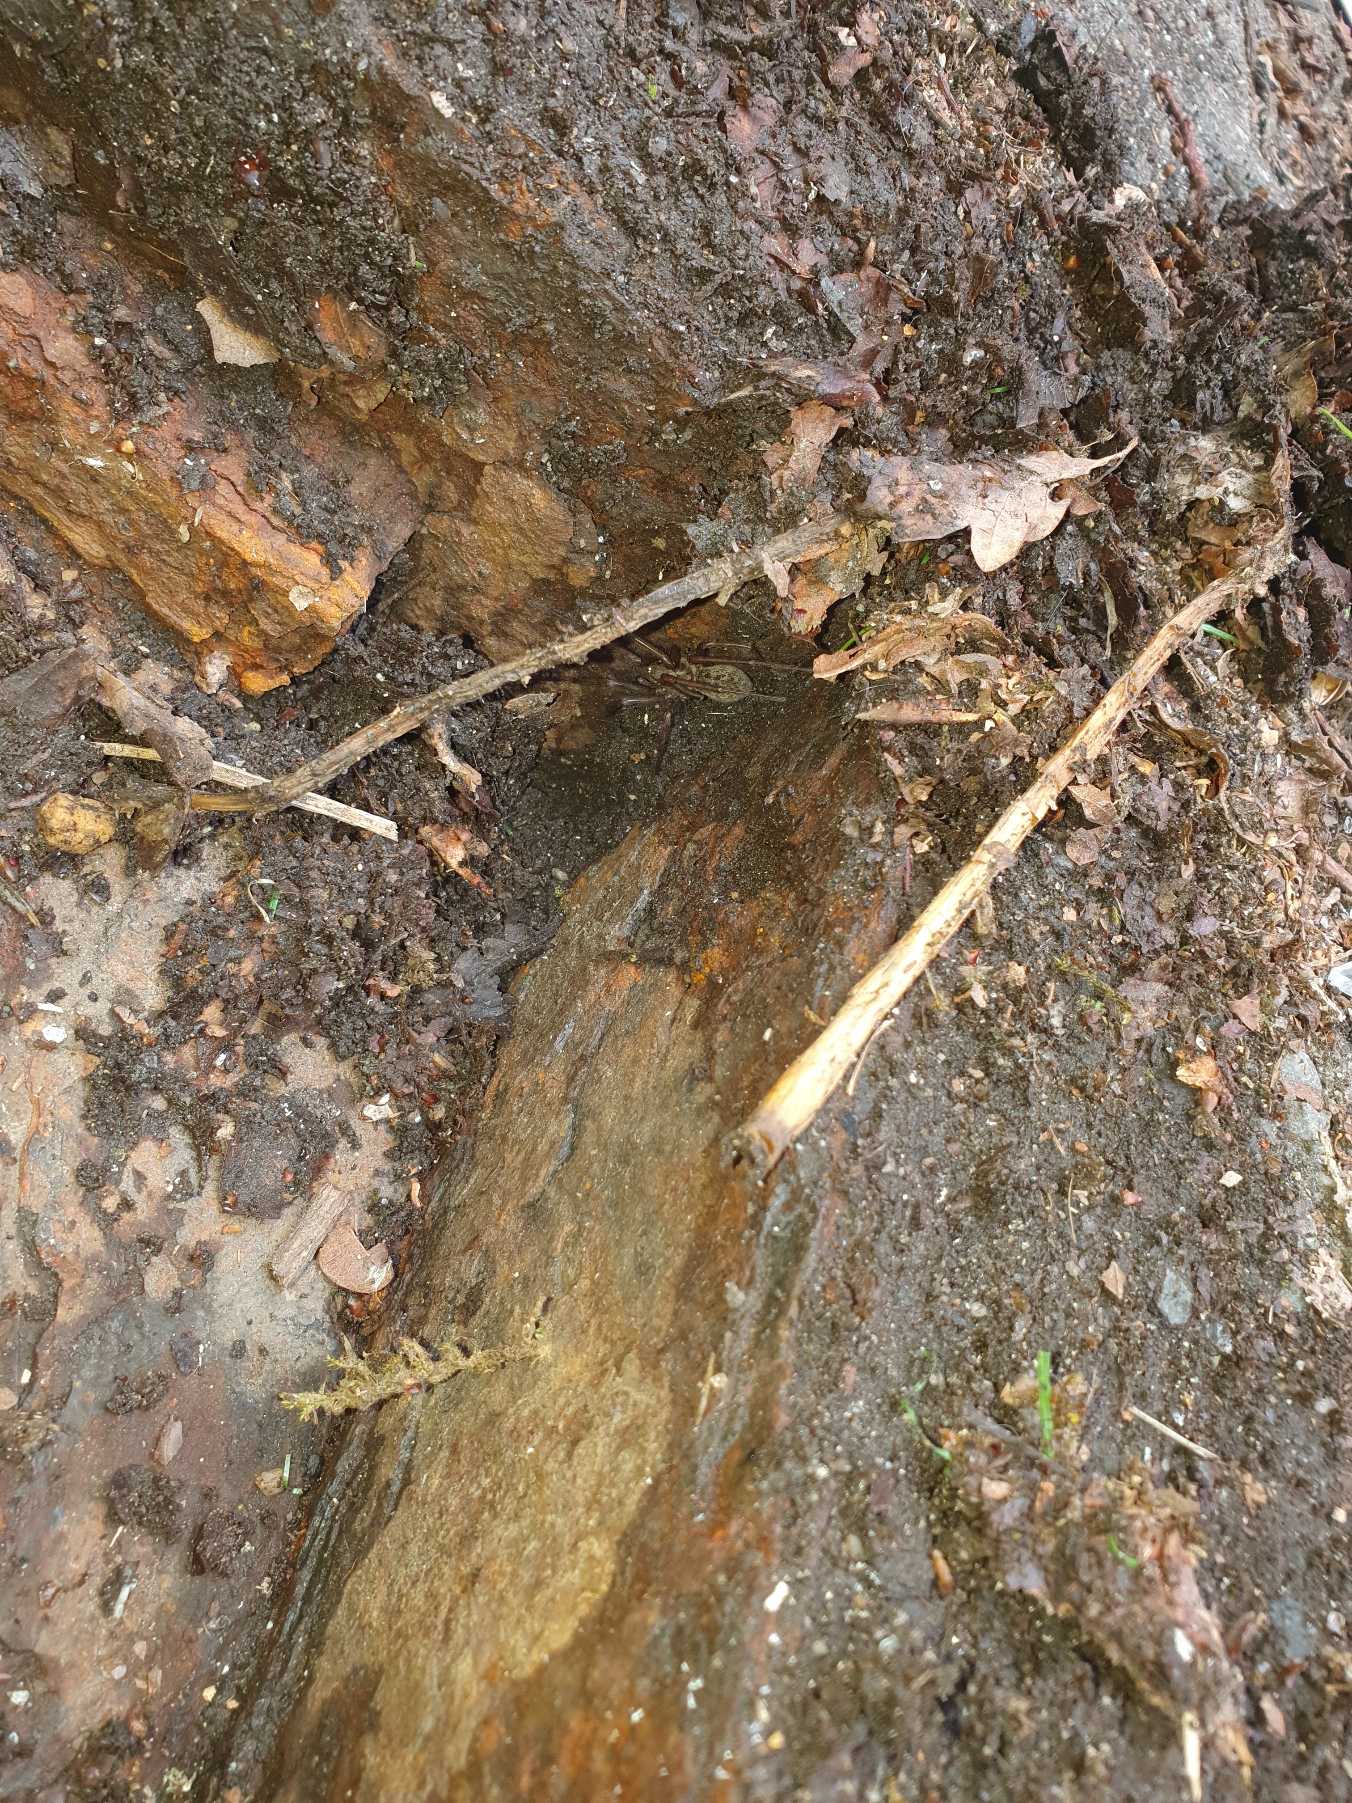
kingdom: Animalia
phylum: Arthropoda
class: Arachnida
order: Araneae
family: Agelenidae
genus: Eratigena
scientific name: Eratigena atrica
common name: Stor husedderkop
